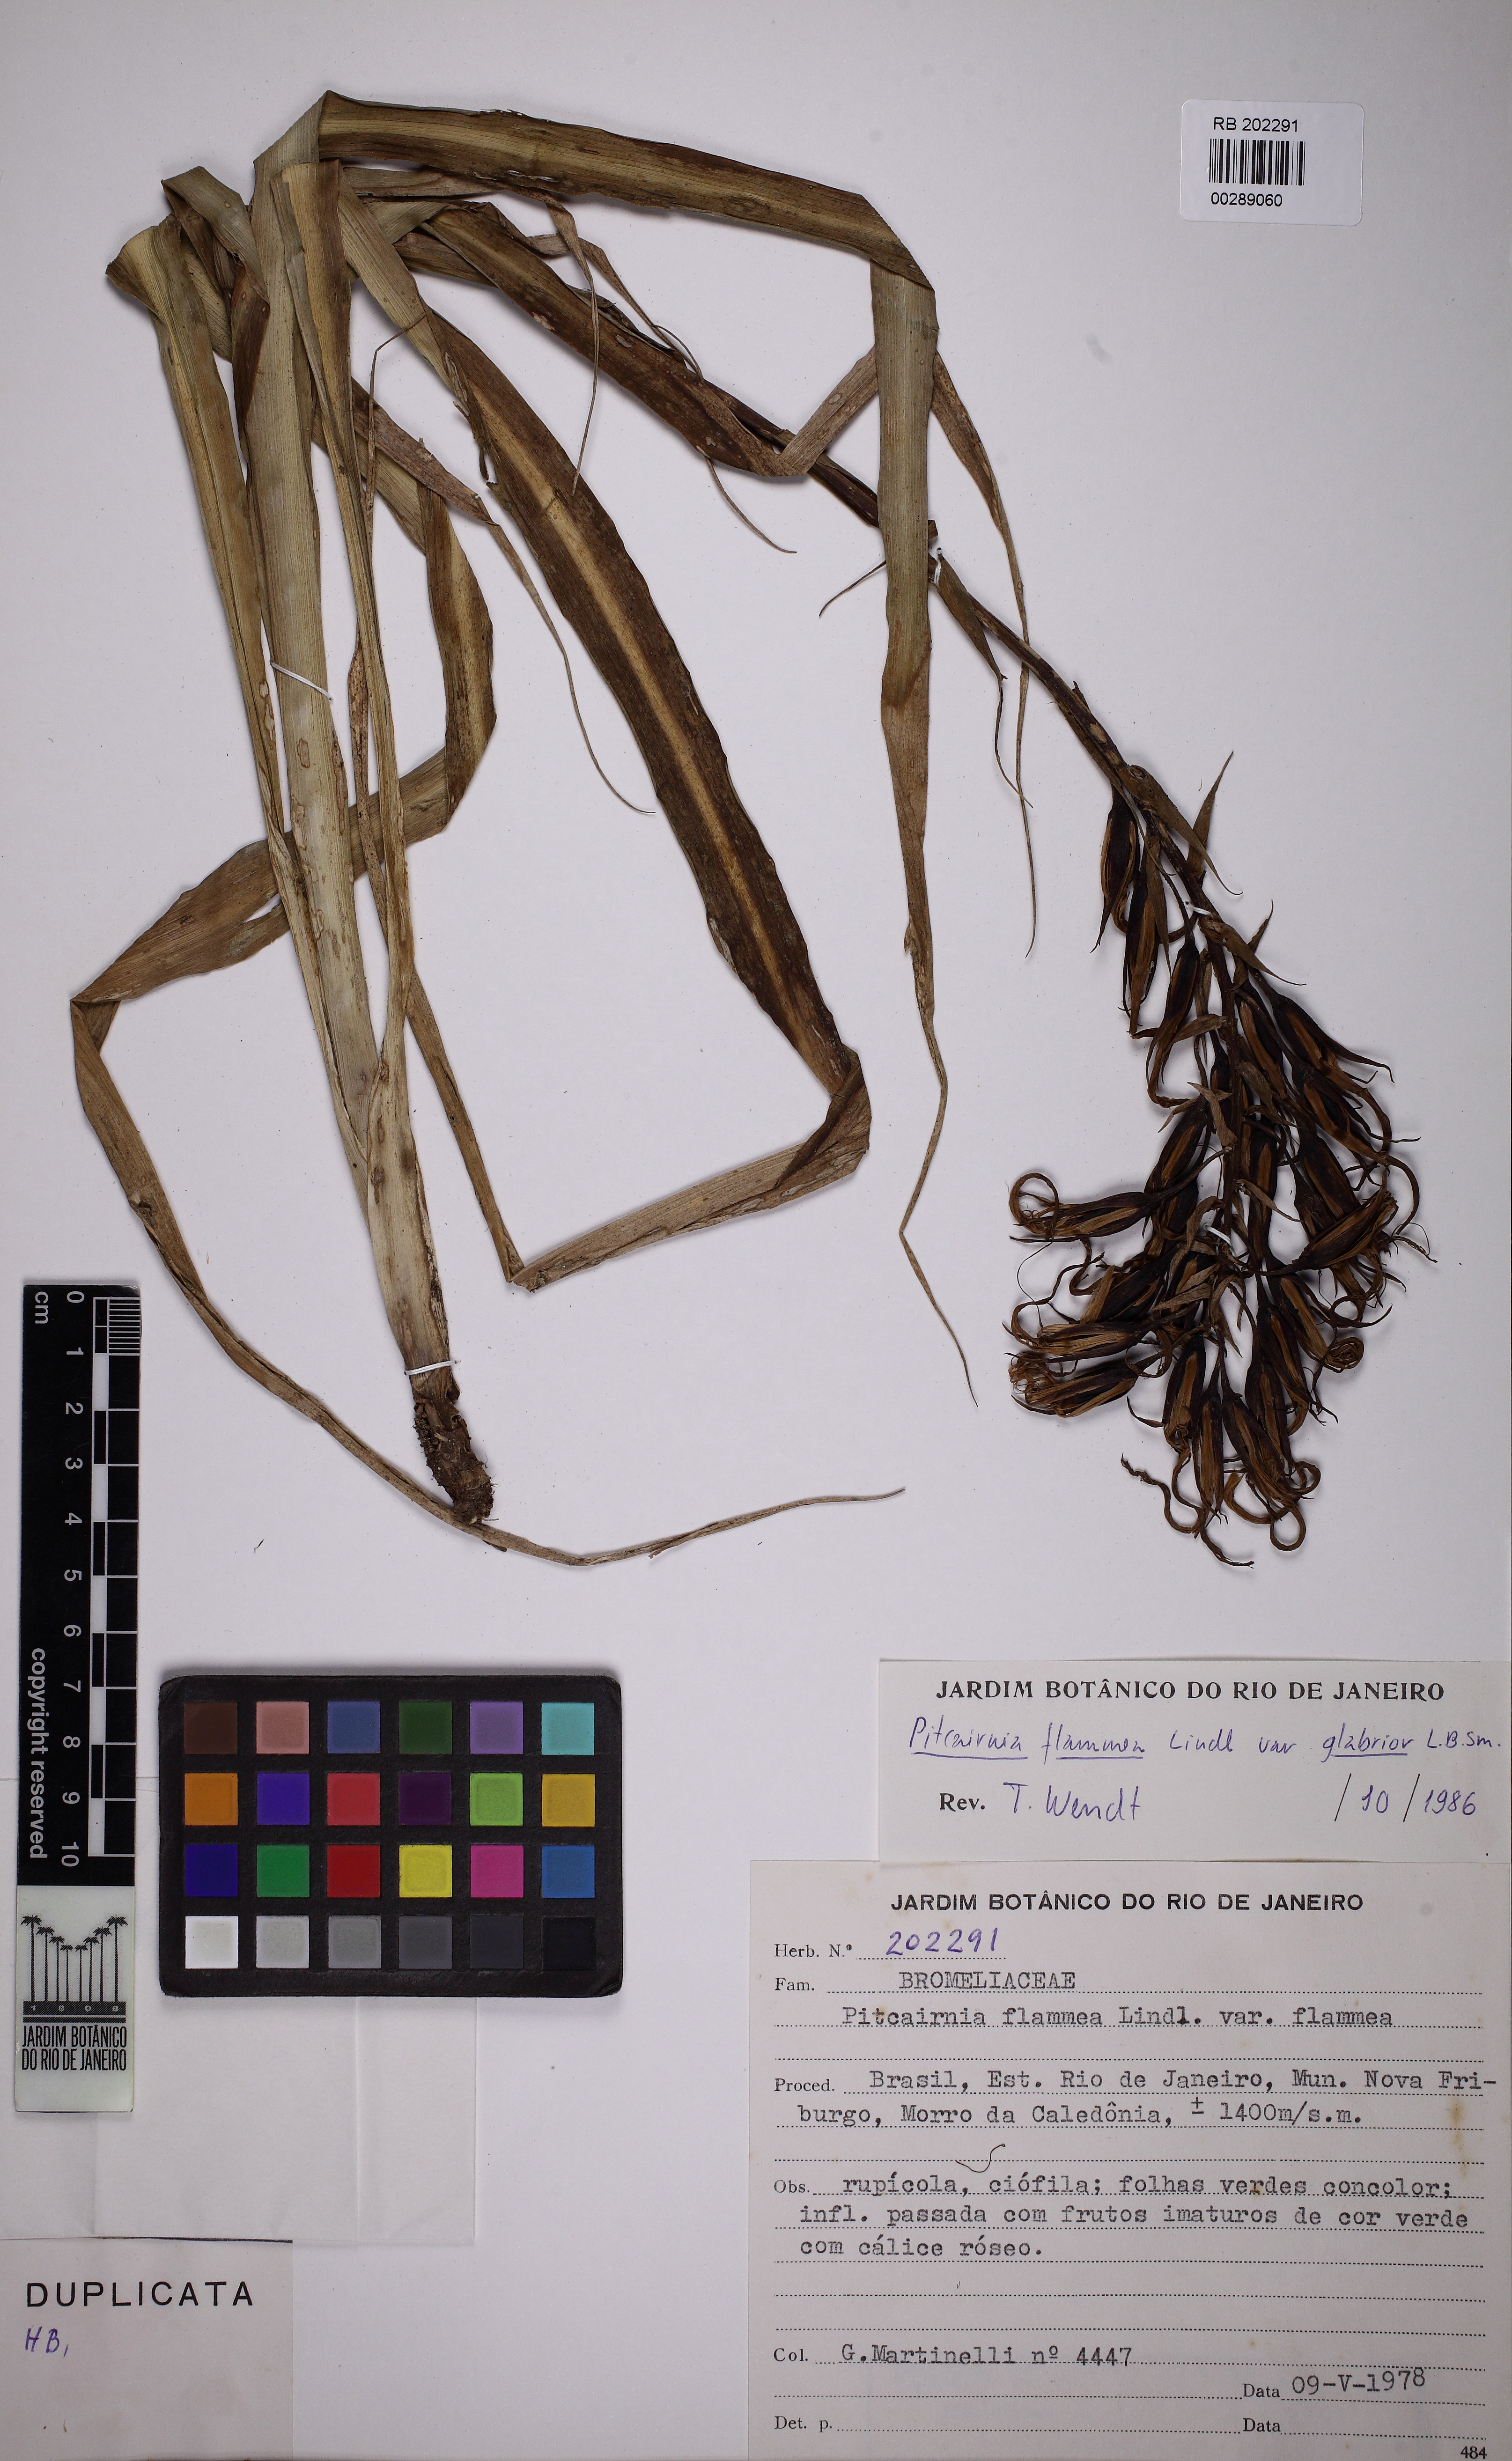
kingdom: Plantae
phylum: Tracheophyta
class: Liliopsida
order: Poales
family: Bromeliaceae
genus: Pitcairnia
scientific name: Pitcairnia flammea
